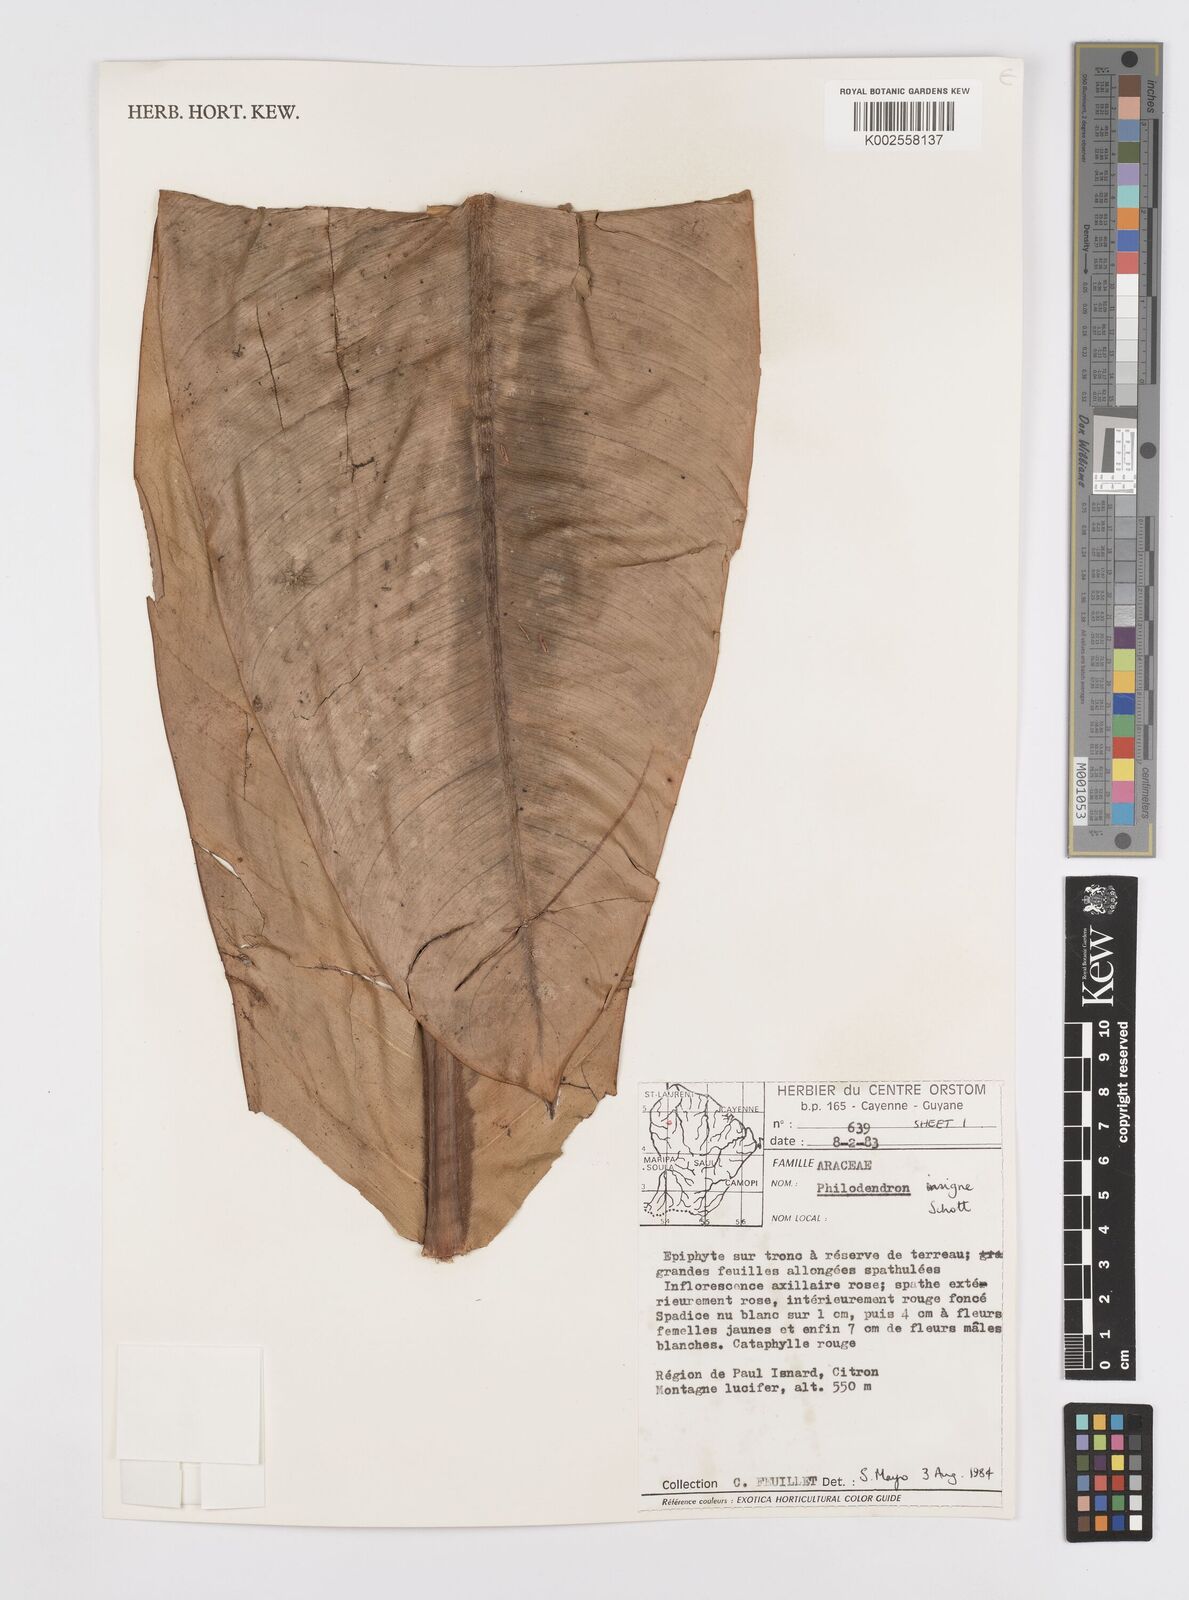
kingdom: Plantae
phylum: Tracheophyta
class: Liliopsida
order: Alismatales
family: Araceae
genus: Philodendron
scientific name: Philodendron insigne
